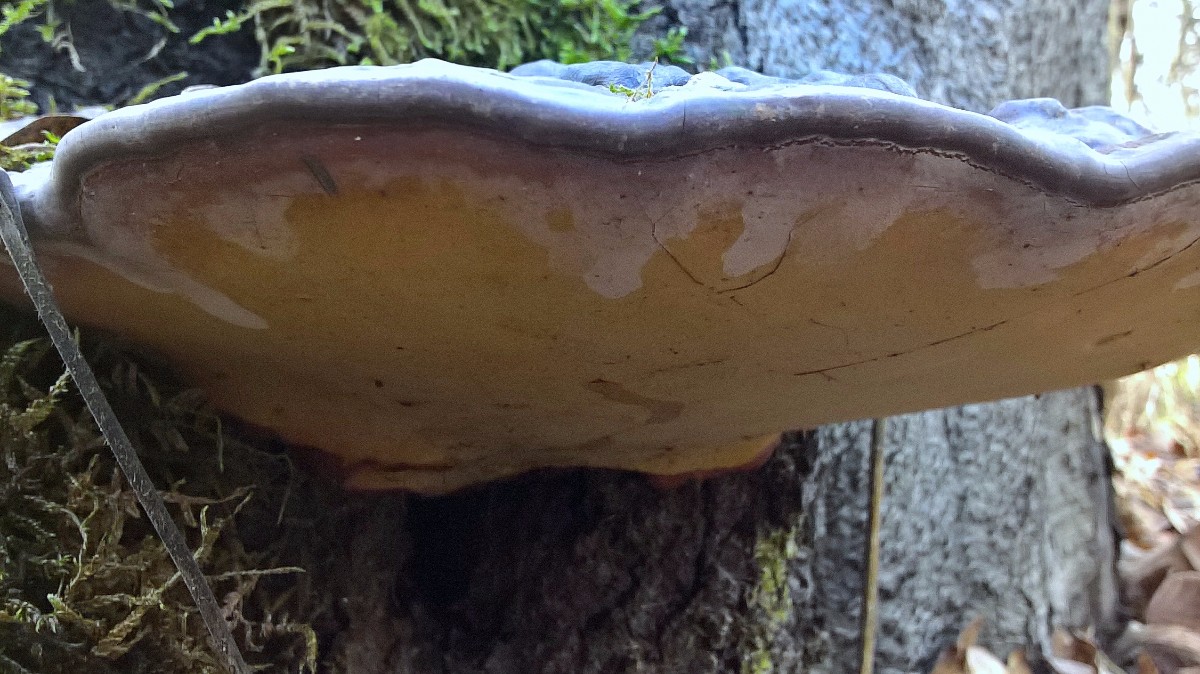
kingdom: Fungi
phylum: Basidiomycota
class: Agaricomycetes
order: Polyporales
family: Polyporaceae
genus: Ganoderma
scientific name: Ganoderma pfeifferi
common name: kobberrød lakporesvamp
